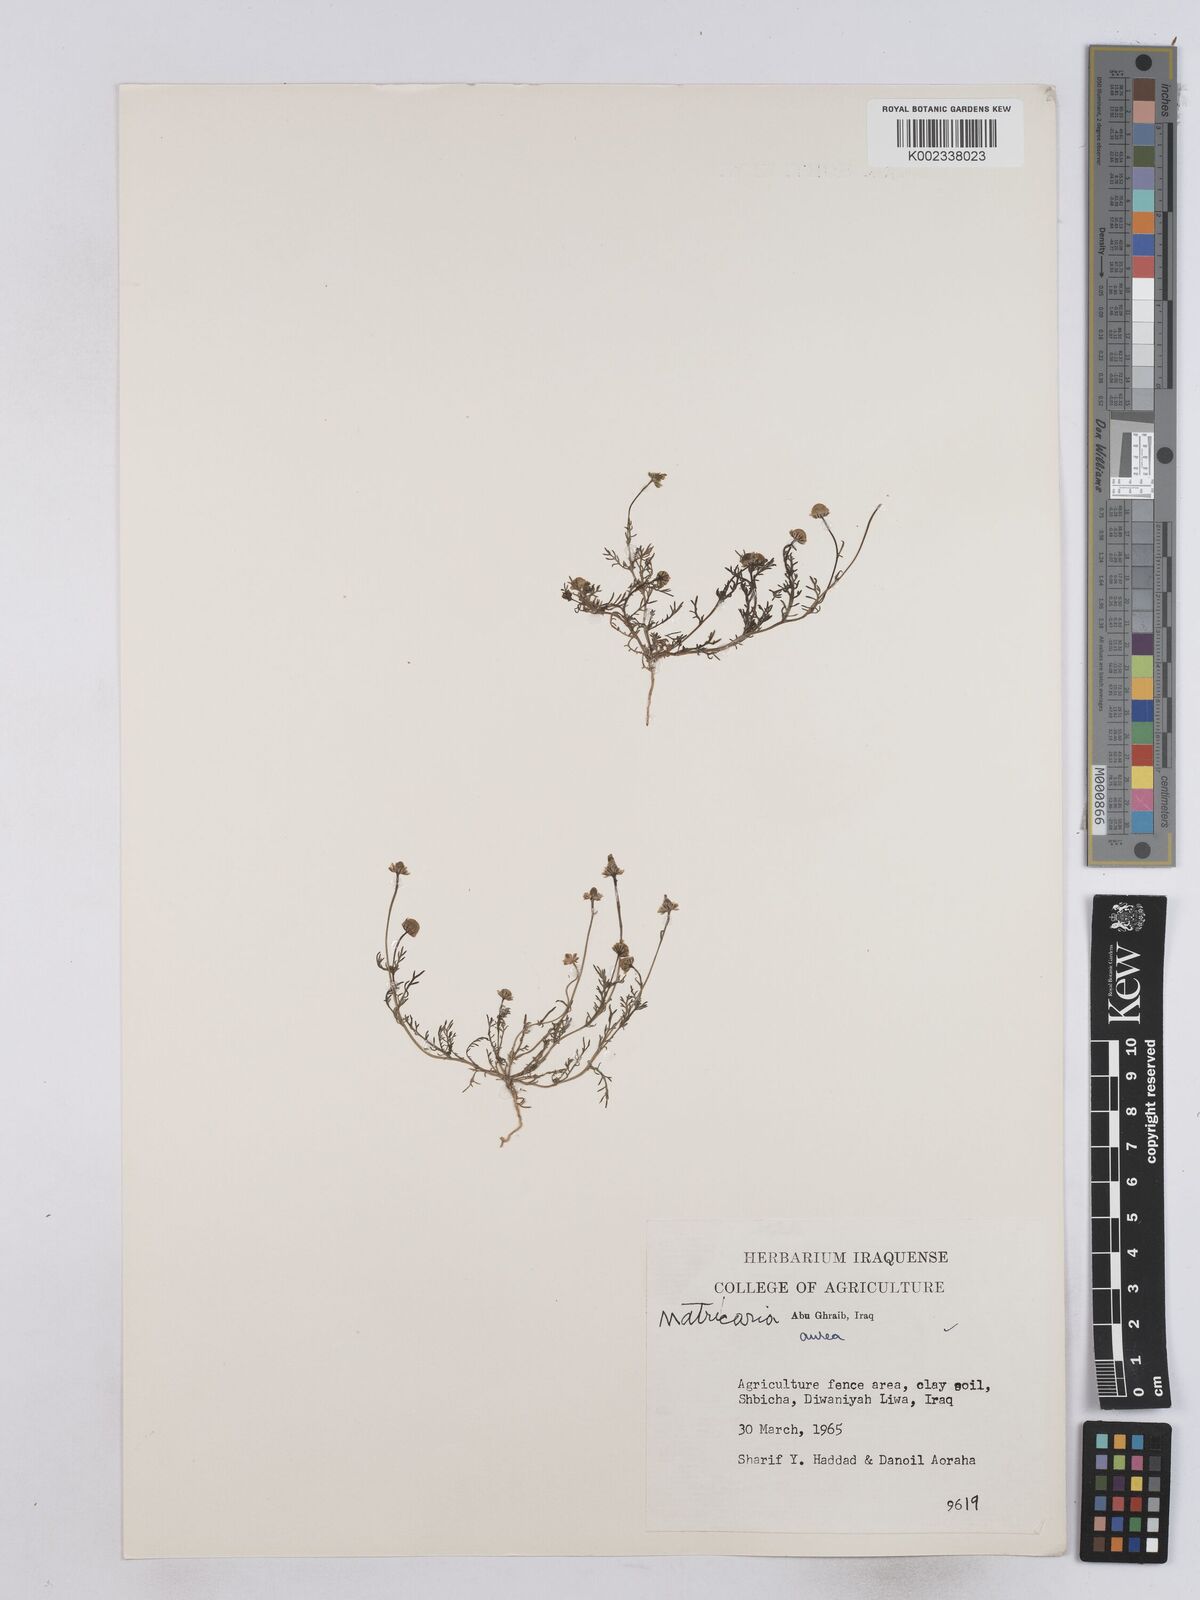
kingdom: Plantae
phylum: Tracheophyta
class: Magnoliopsida
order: Asterales
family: Asteraceae
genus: Matricaria
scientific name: Matricaria aurea
